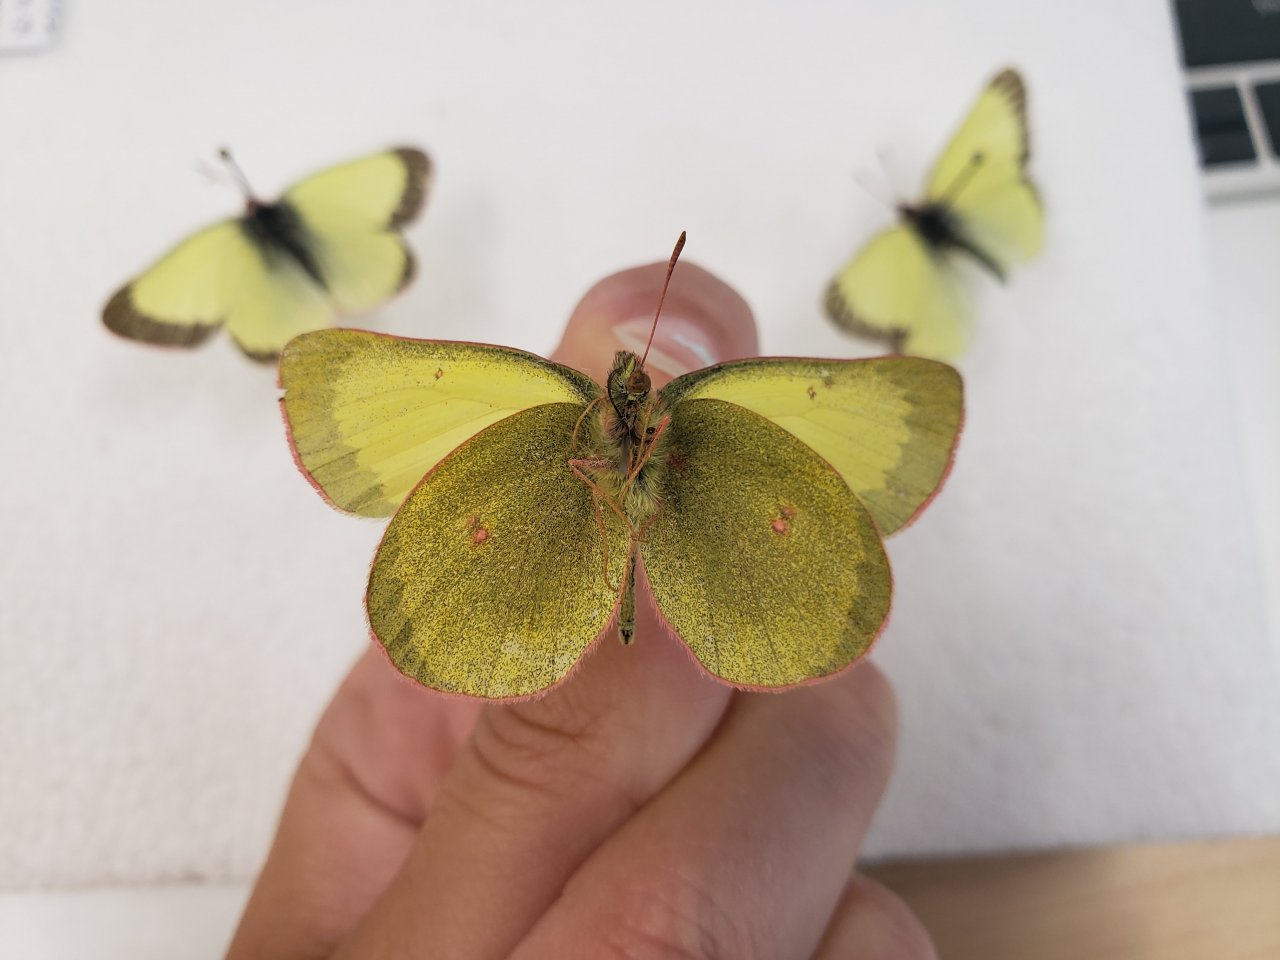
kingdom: Animalia
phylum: Arthropoda
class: Insecta
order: Lepidoptera
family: Pieridae
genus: Colias
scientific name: Colias pelidne
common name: Pelidne Sulphur
